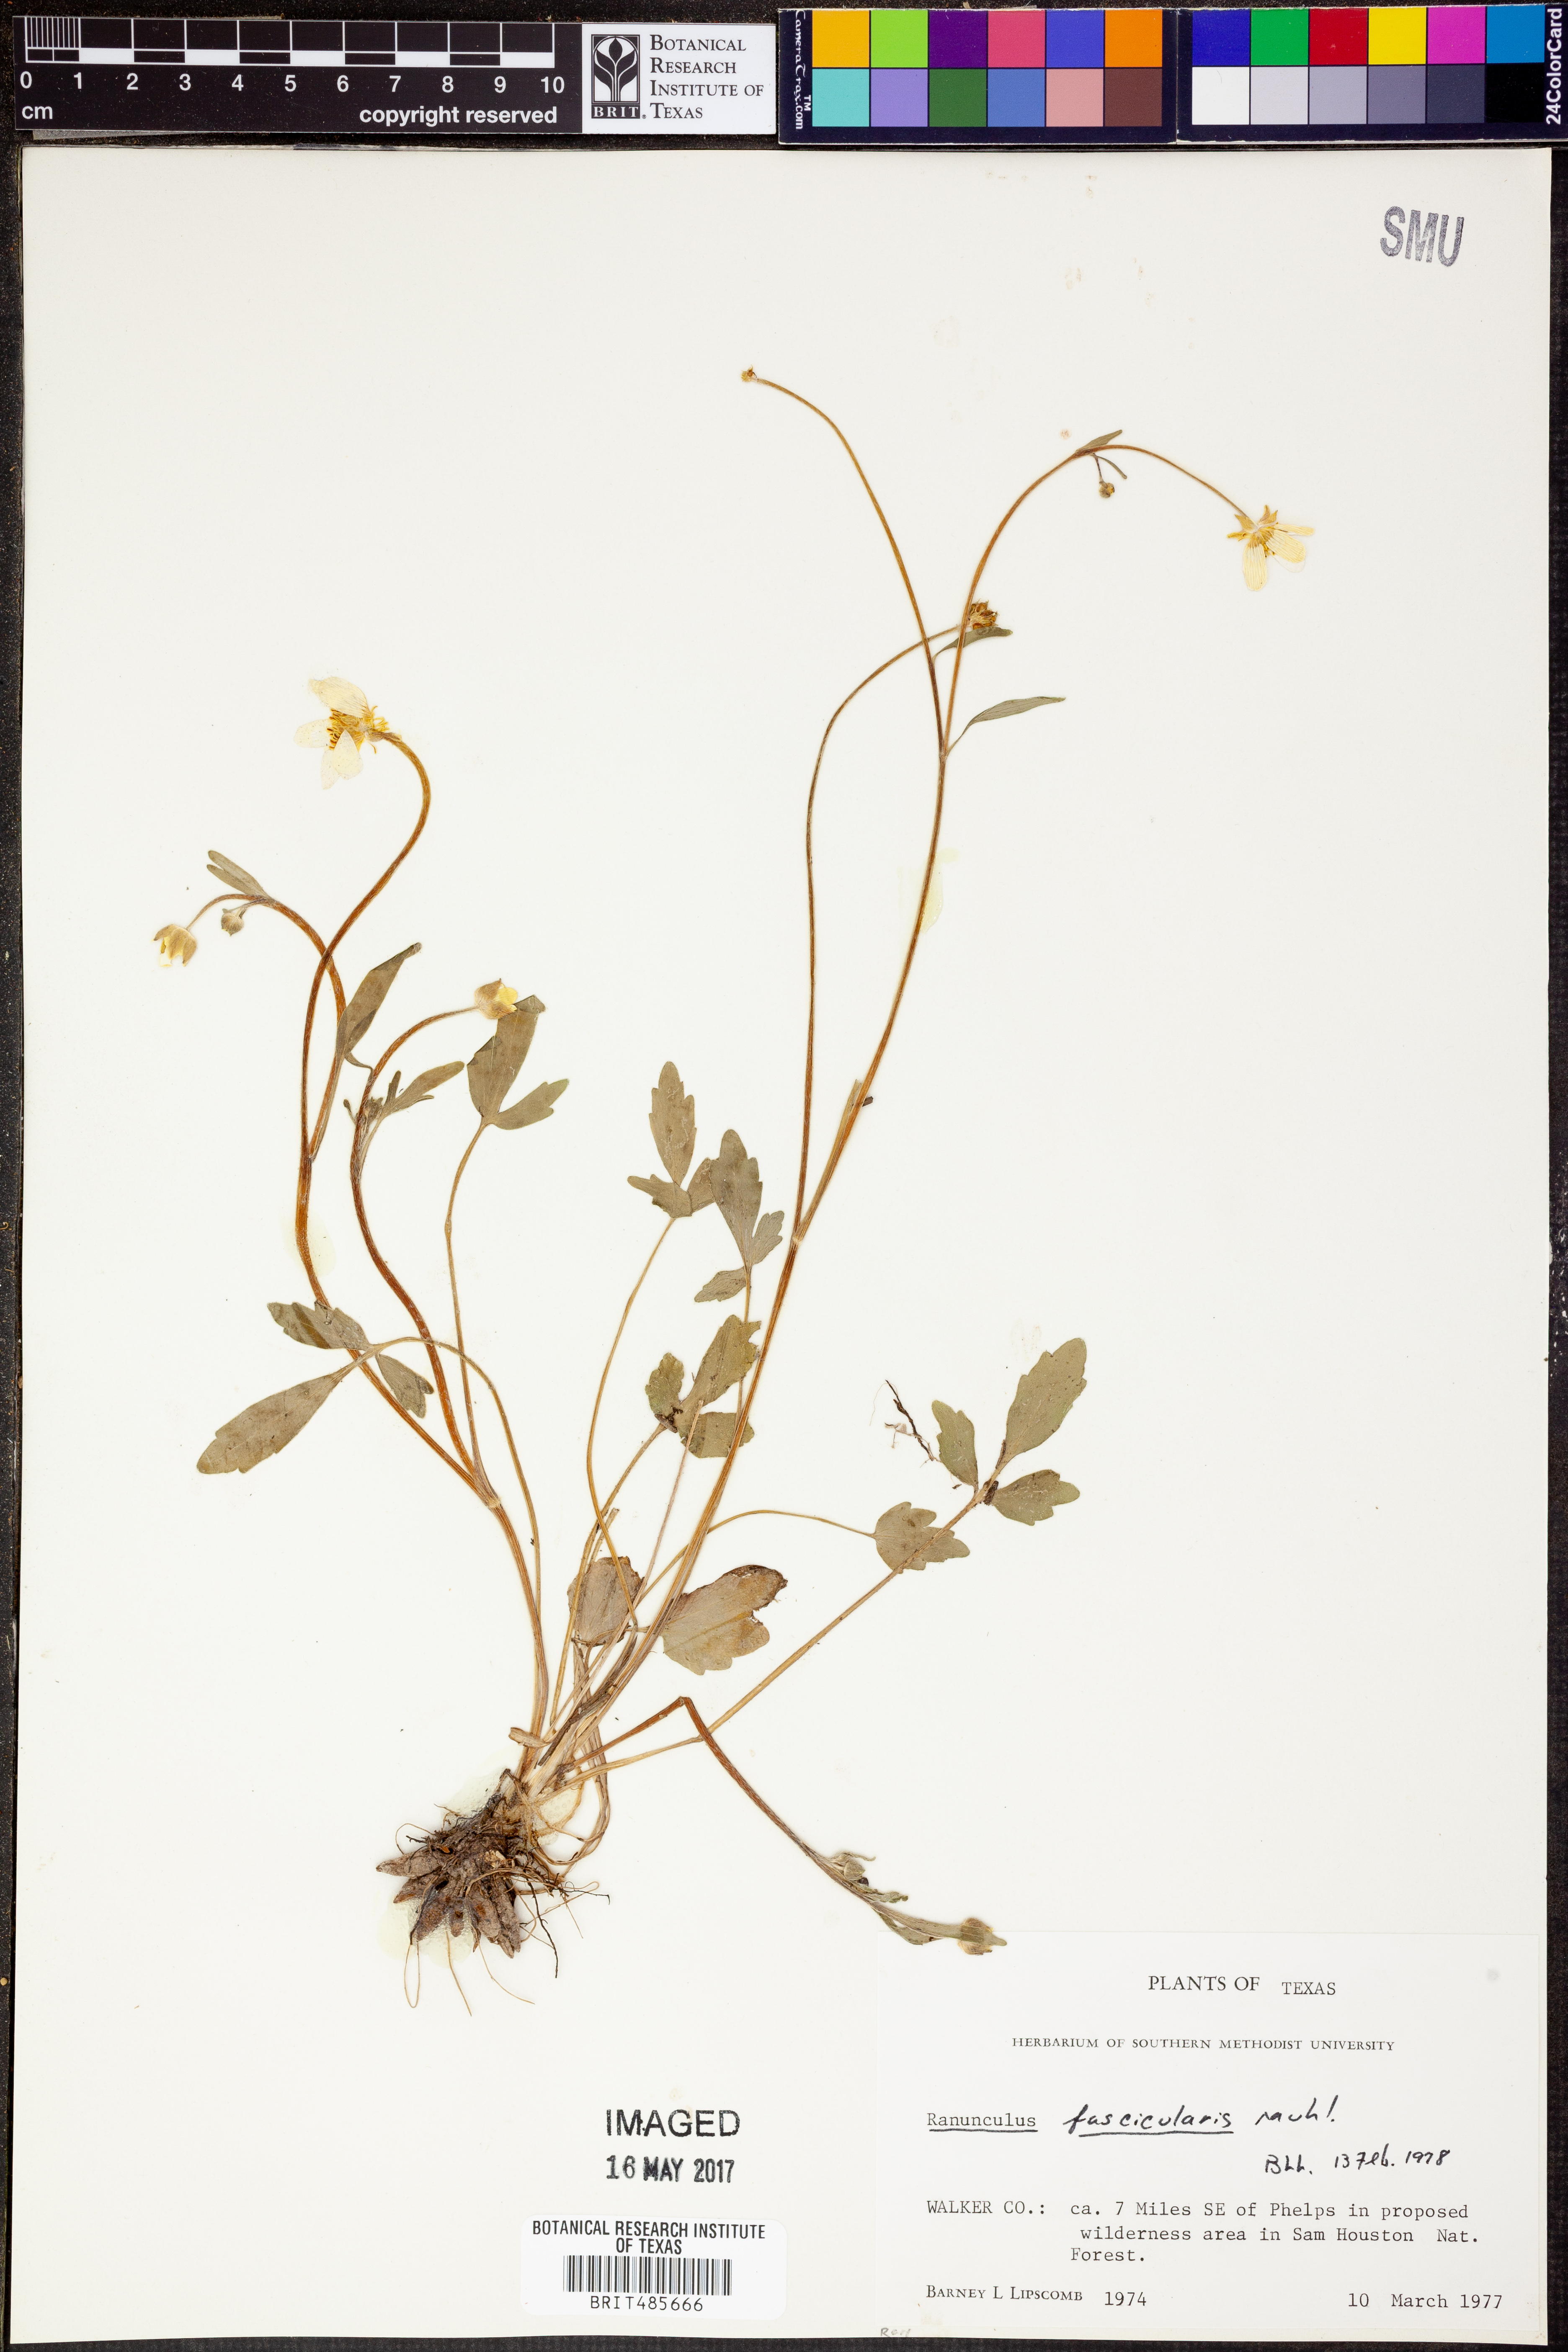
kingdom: Plantae
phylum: Tracheophyta
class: Magnoliopsida
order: Ranunculales
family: Ranunculaceae
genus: Ranunculus
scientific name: Ranunculus fascicularis
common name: Early buttercup
